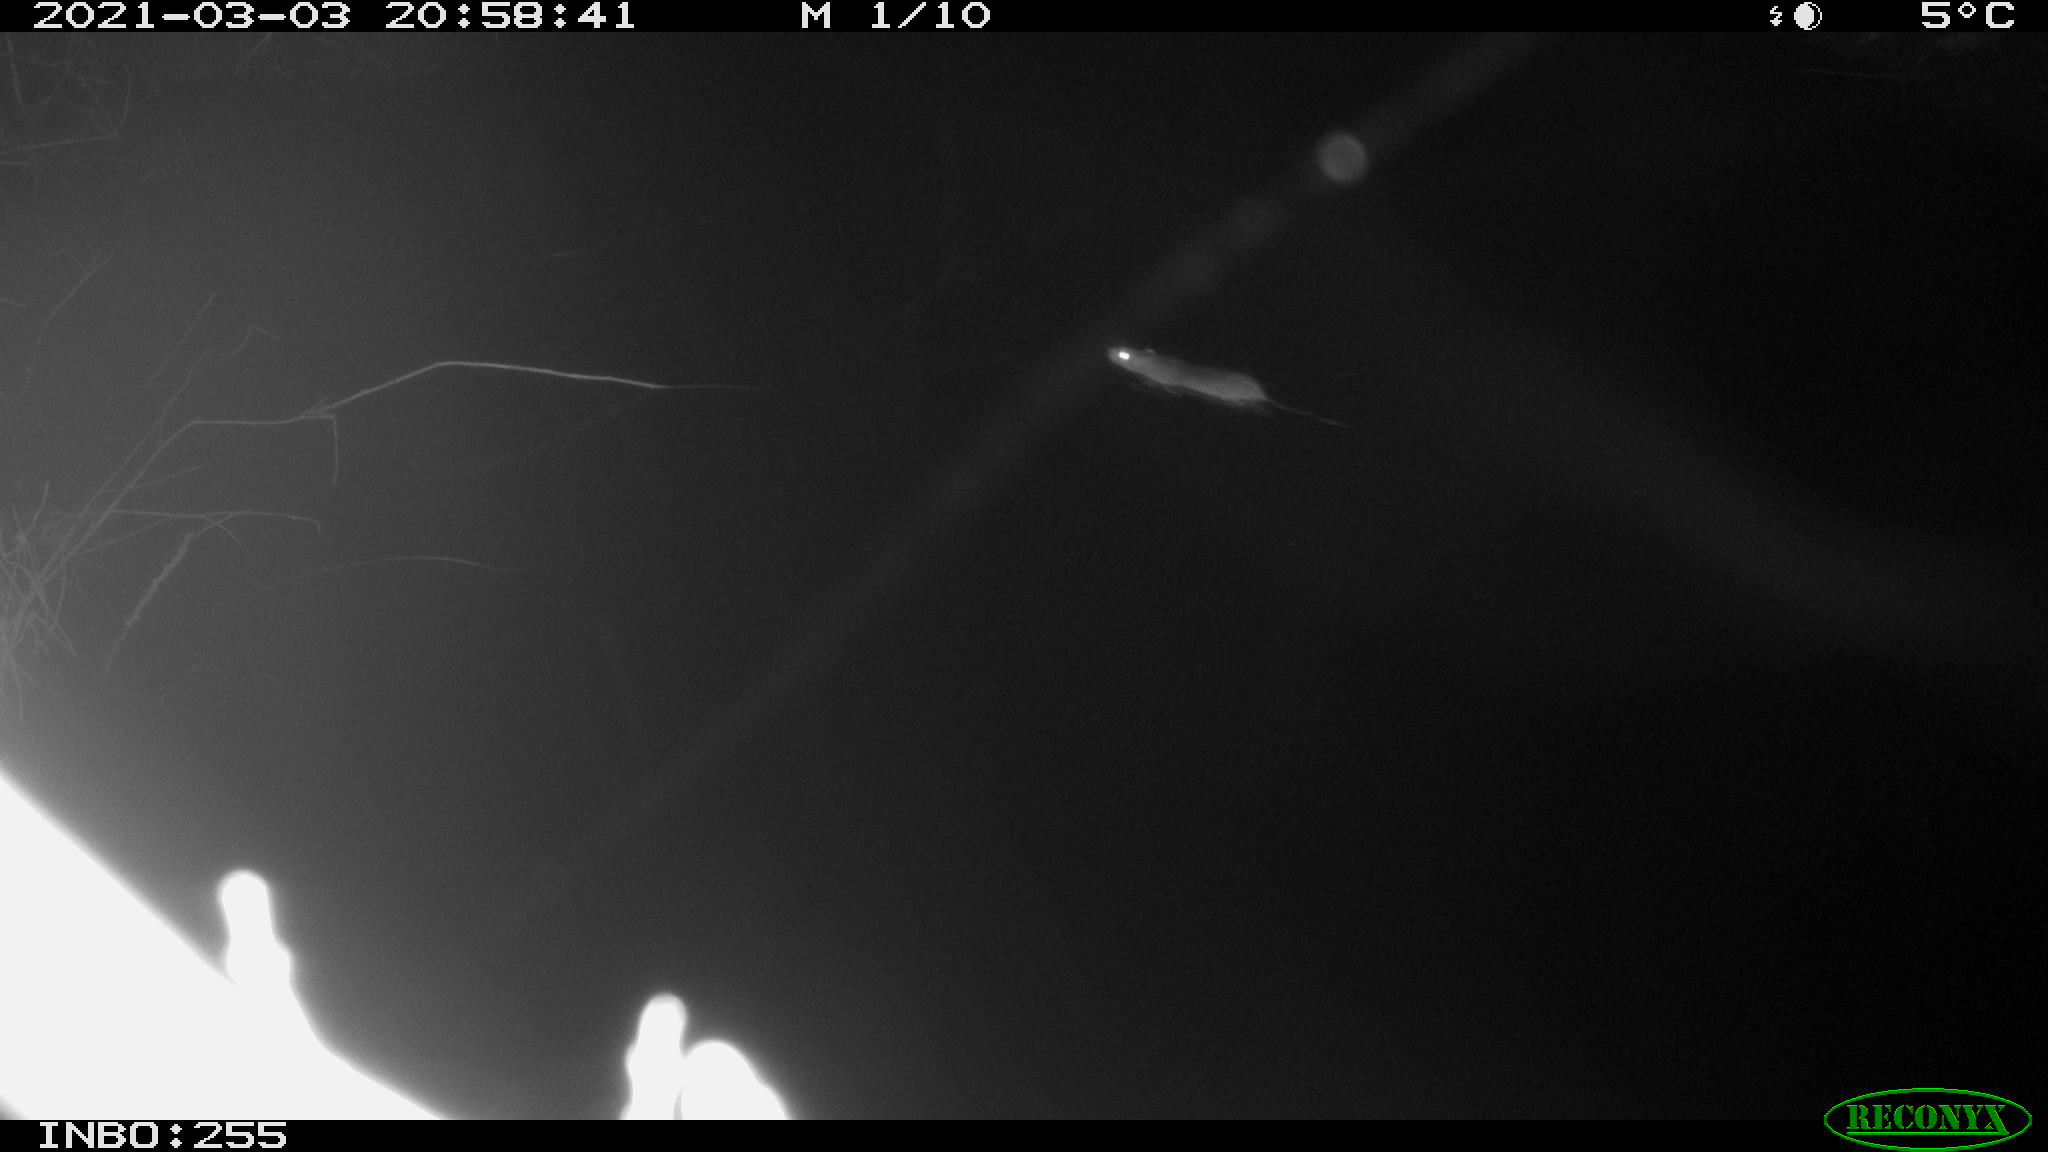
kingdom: Animalia
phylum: Chordata
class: Mammalia
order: Rodentia
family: Muridae
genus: Rattus
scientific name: Rattus norvegicus
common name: Brown rat
